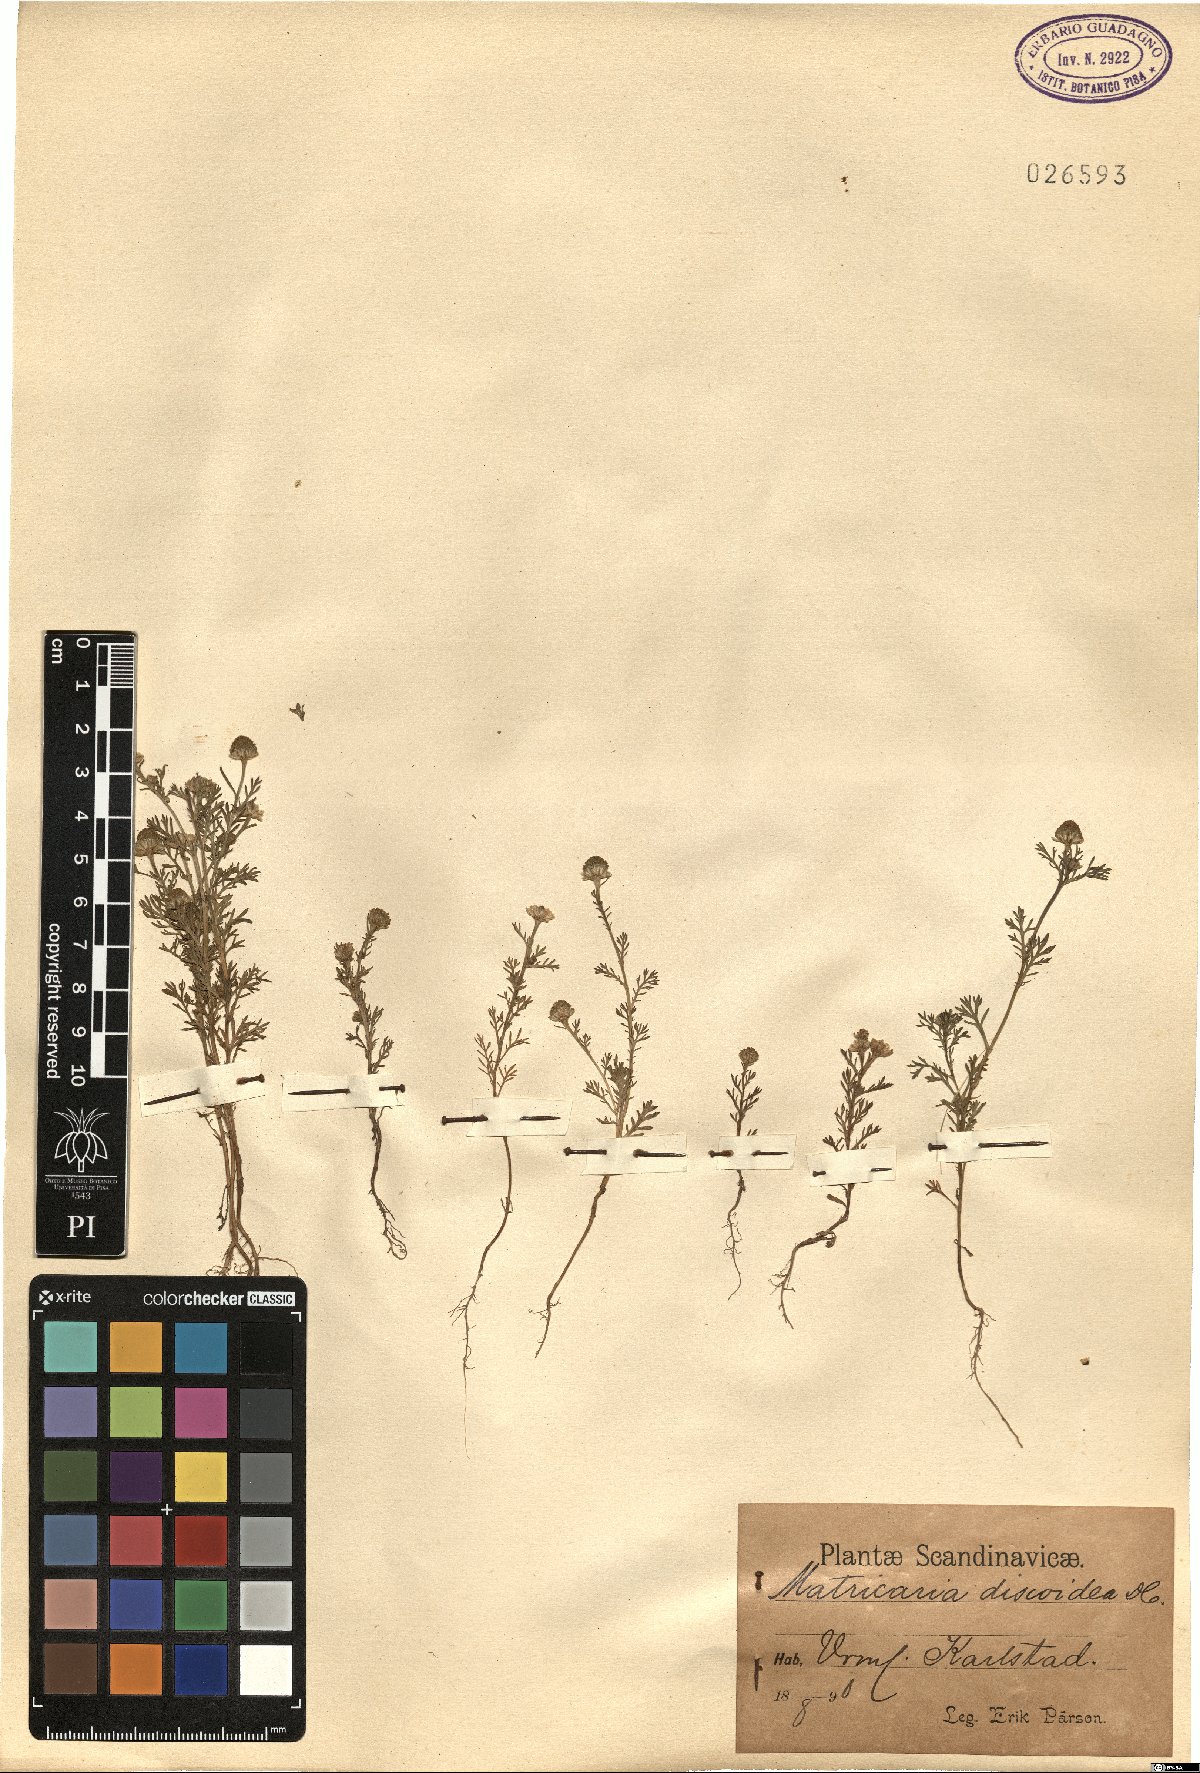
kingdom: Plantae
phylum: Tracheophyta
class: Magnoliopsida
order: Asterales
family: Asteraceae
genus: Matricaria
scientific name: Matricaria discoidea
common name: Disc mayweed
